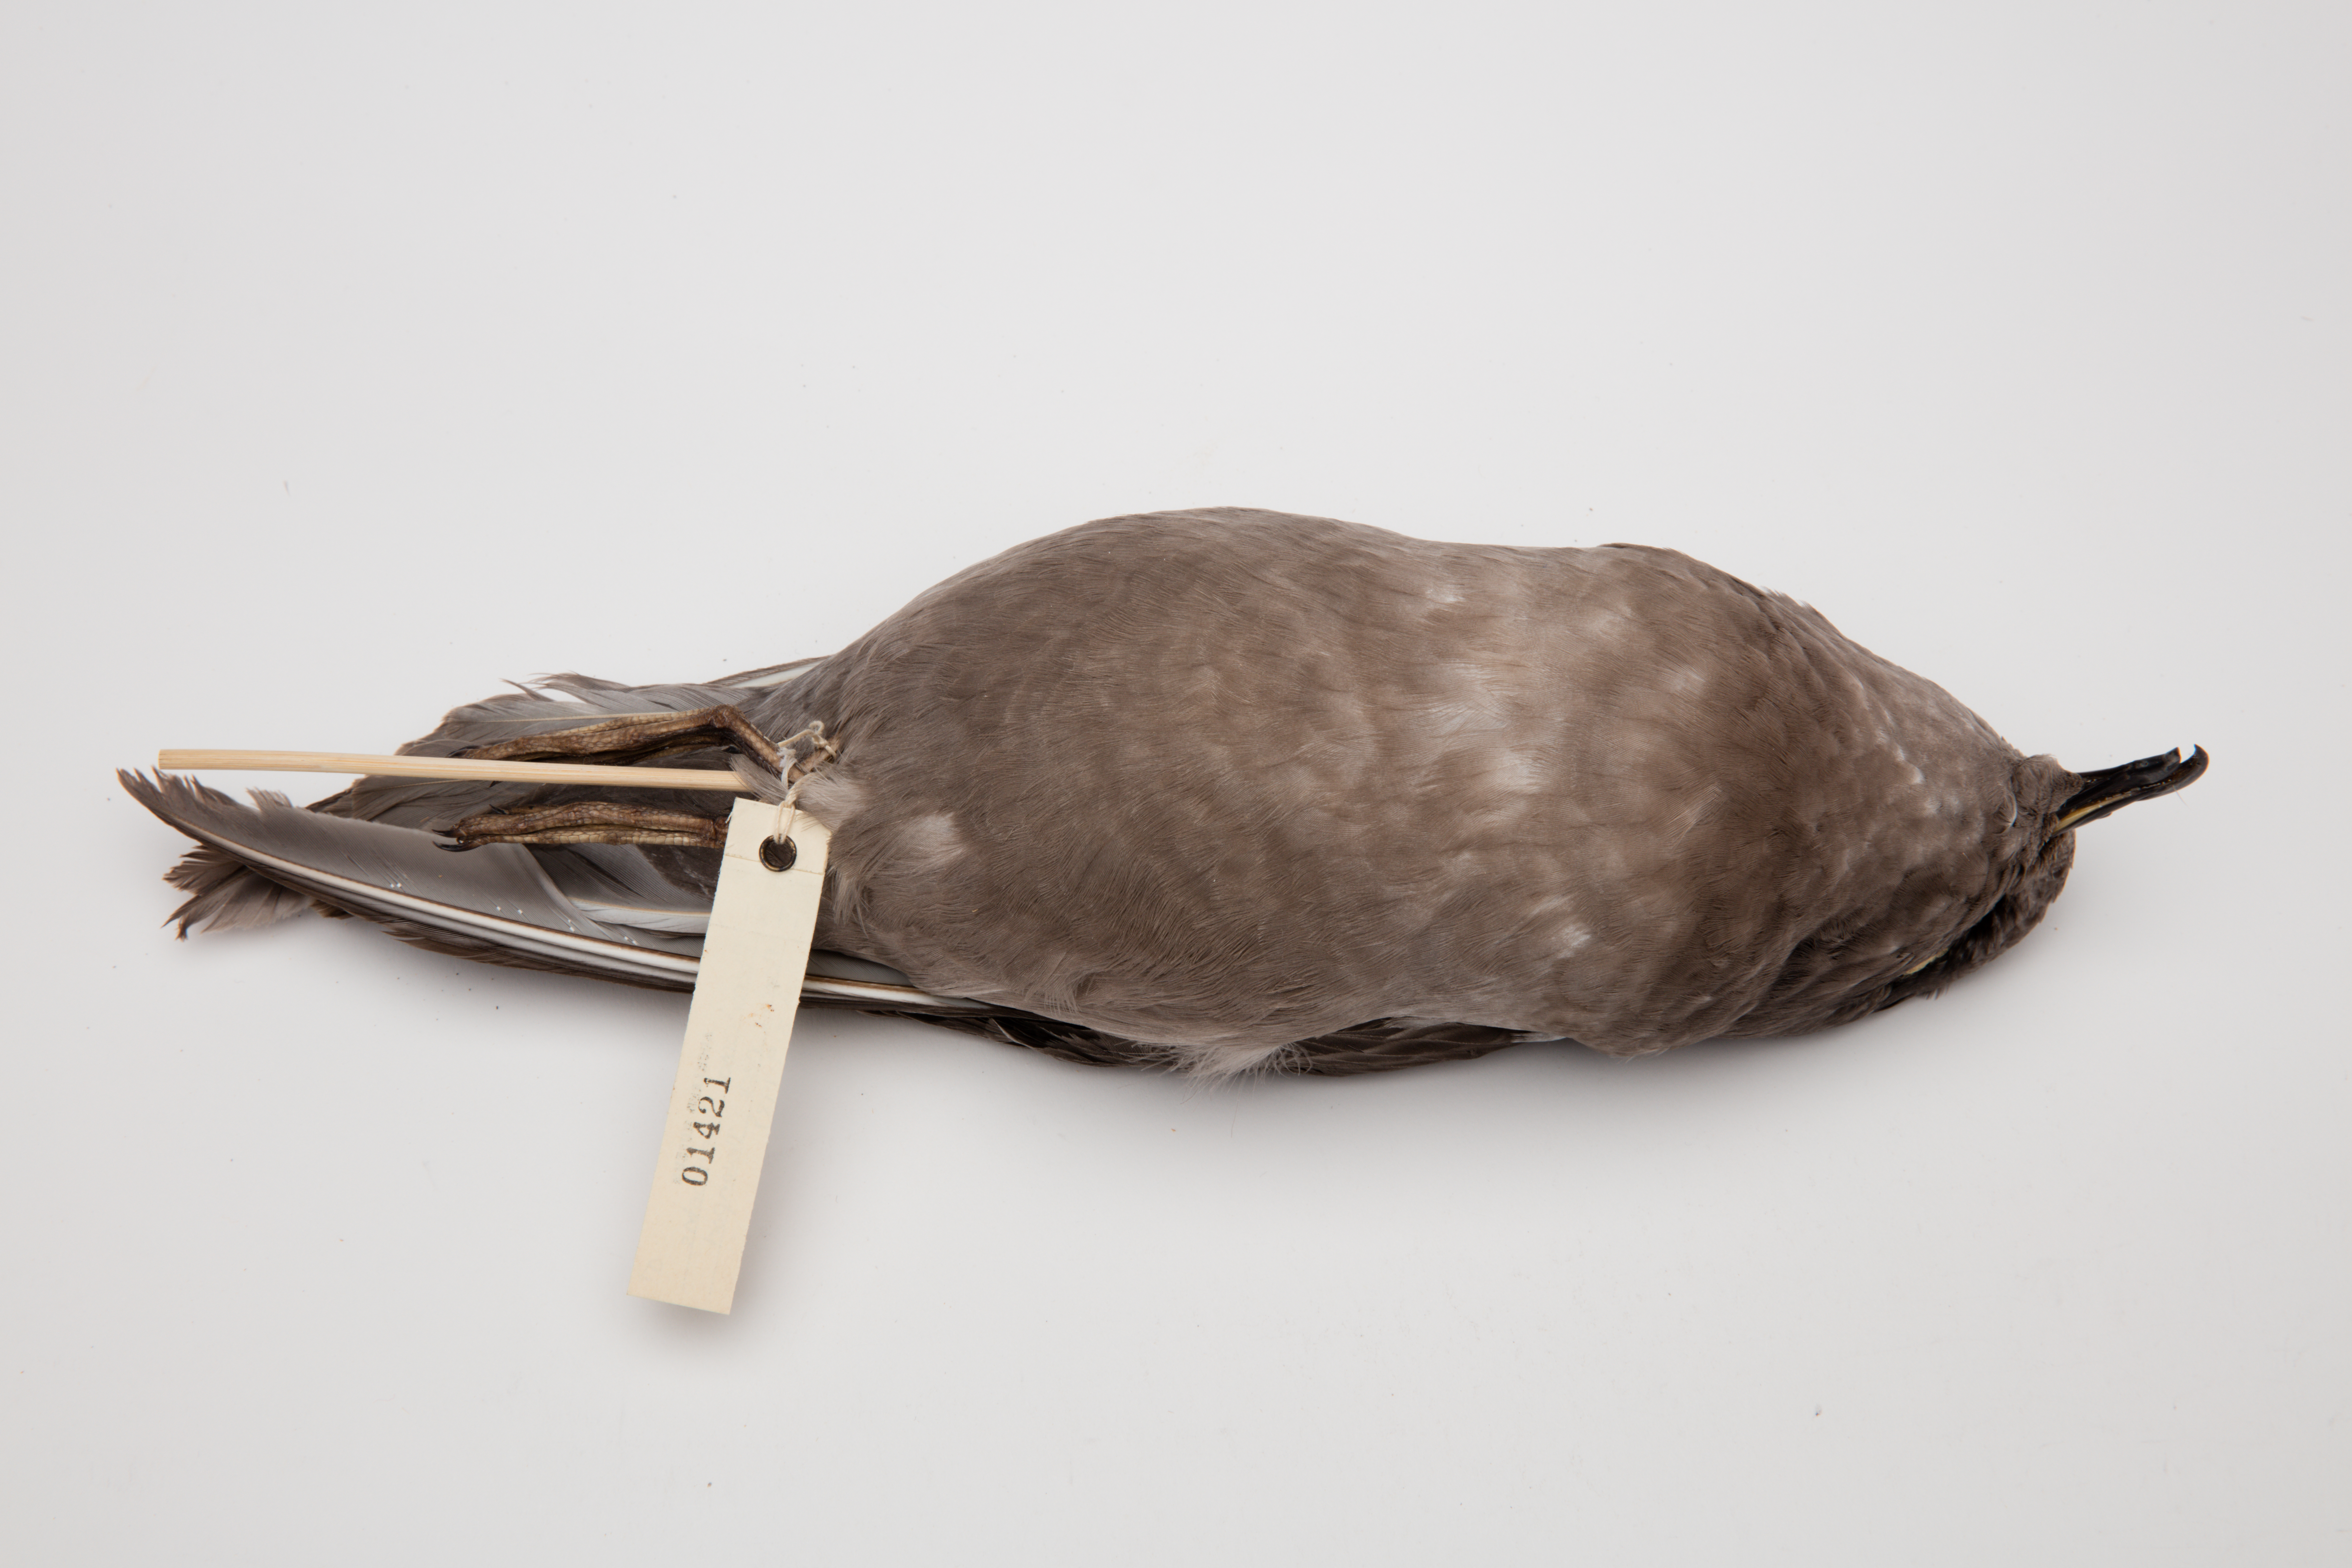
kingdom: Animalia
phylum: Chordata
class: Aves
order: Procellariiformes
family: Procellariidae
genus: Aphrodroma
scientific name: Aphrodroma brevirostris
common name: Kerguelen petrel
